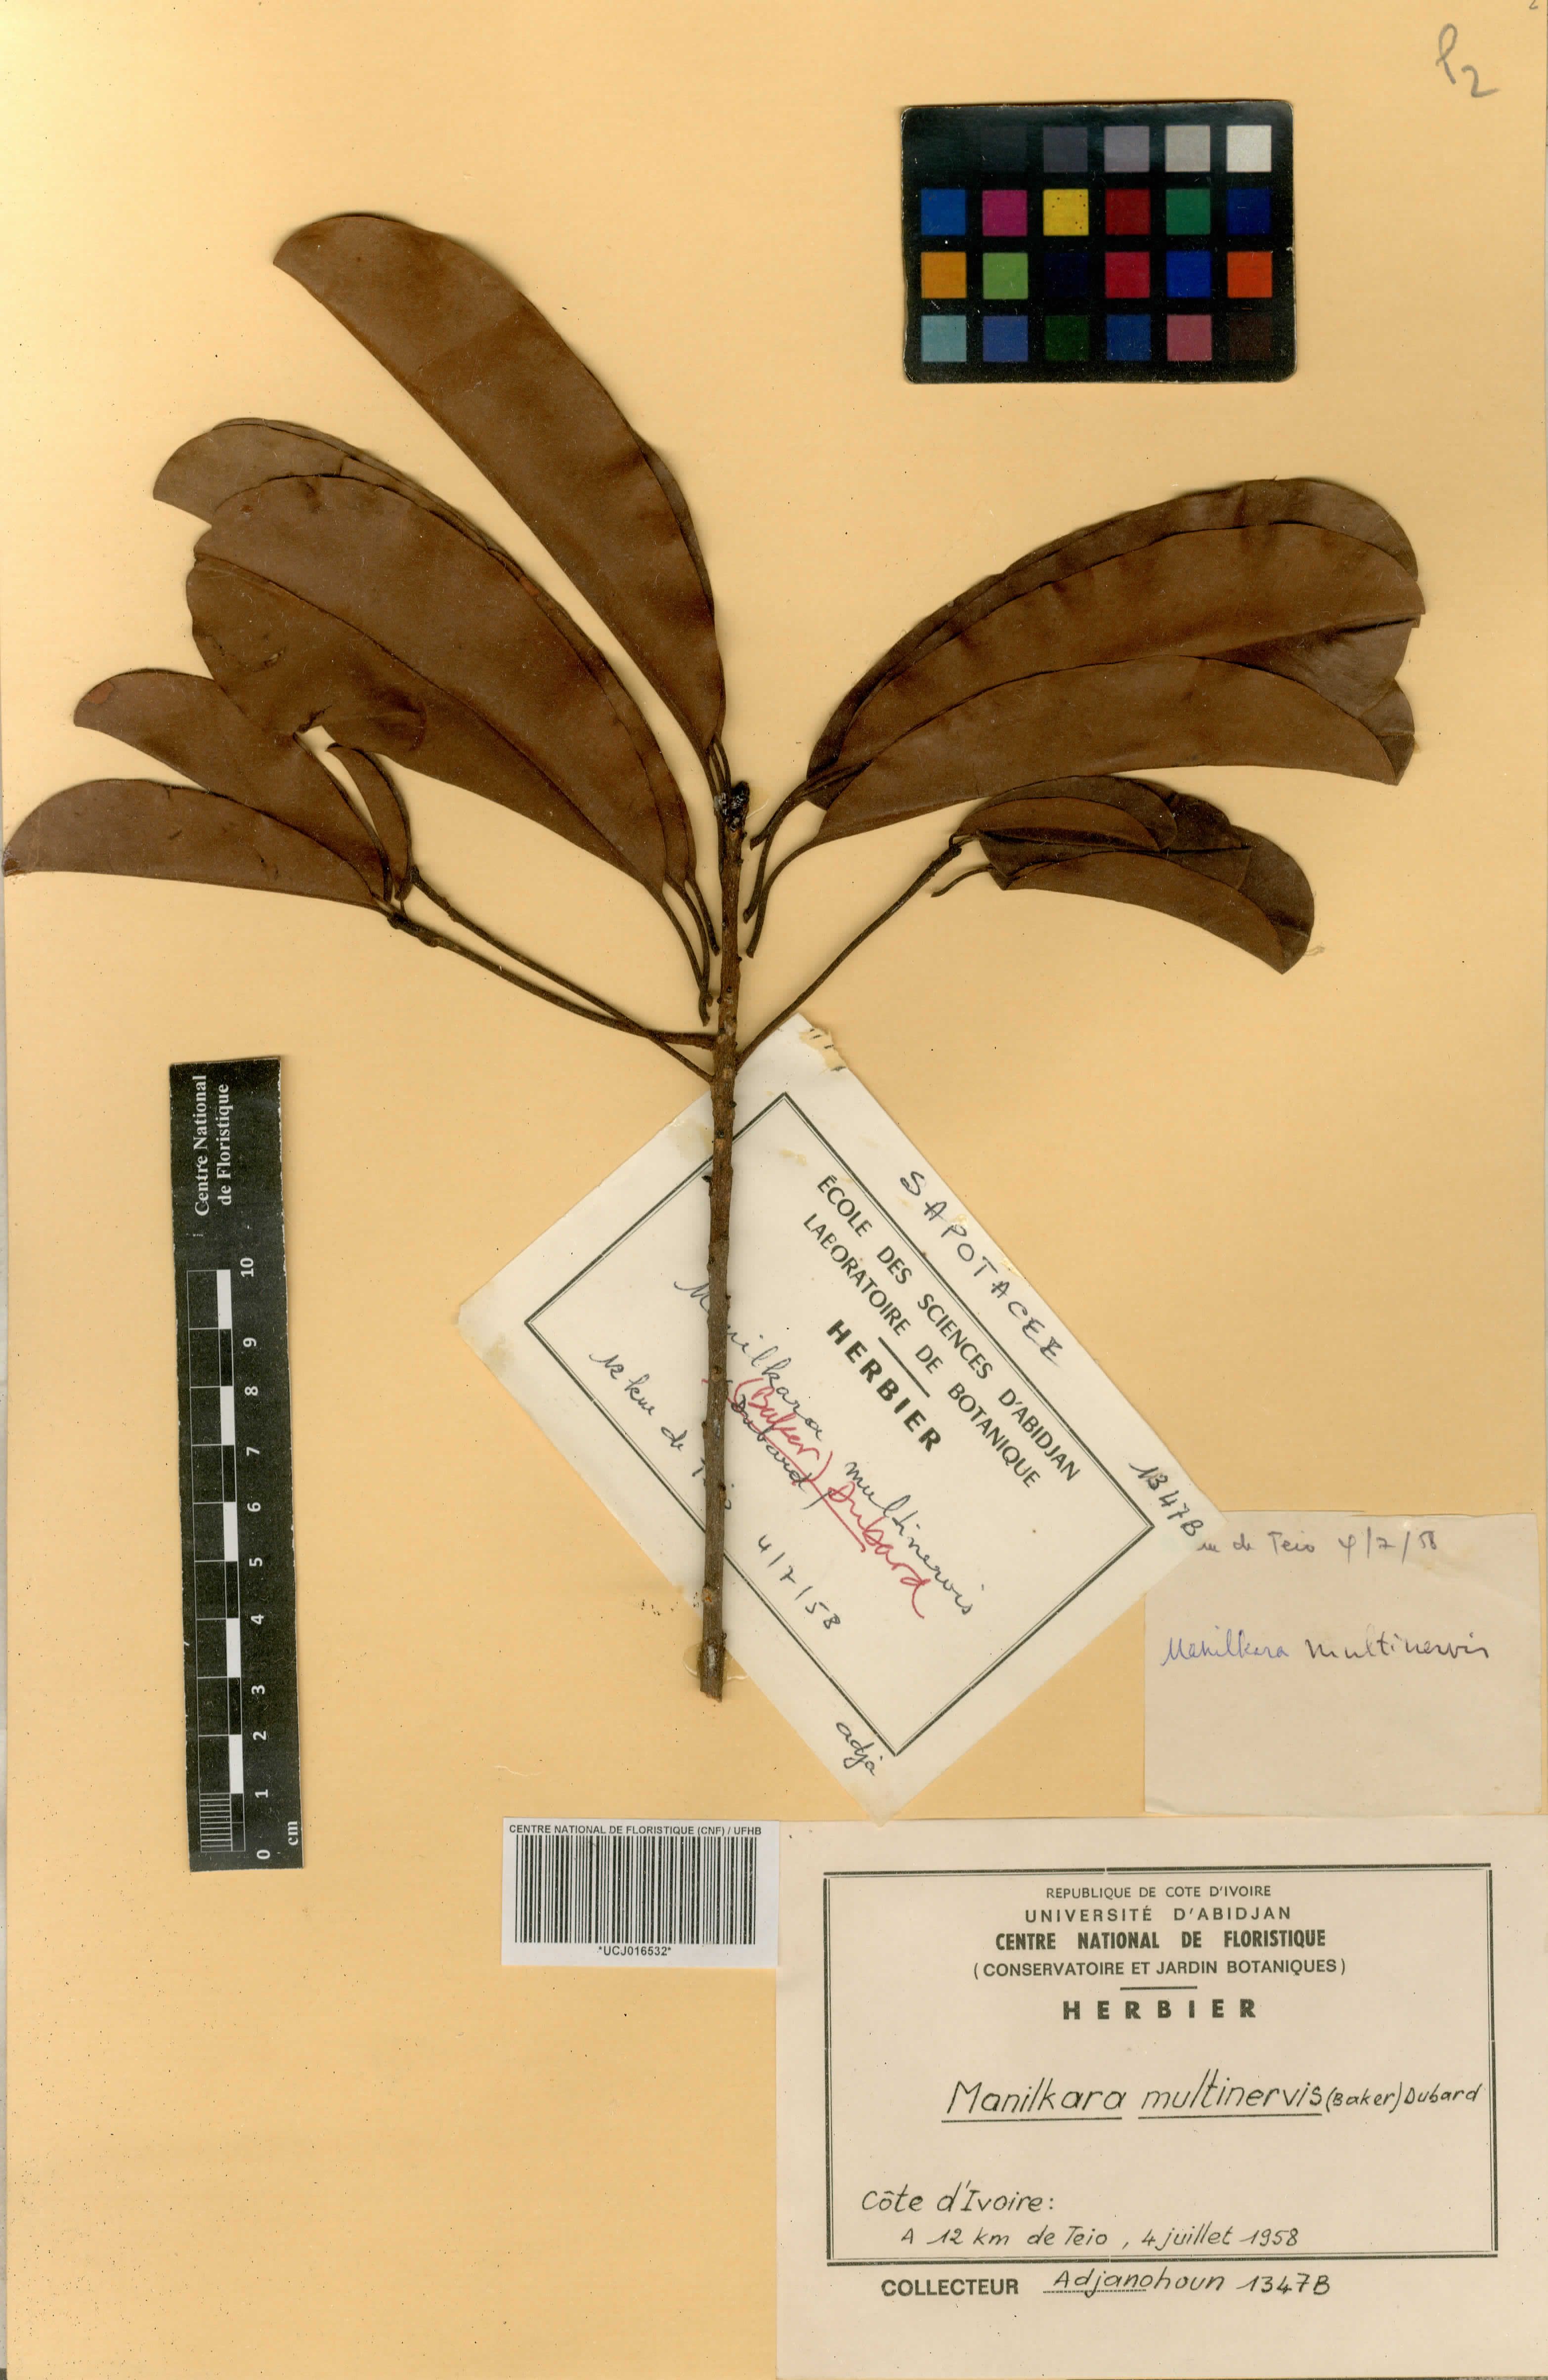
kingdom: Plantae
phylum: Tracheophyta
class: Magnoliopsida
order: Ericales
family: Sapotaceae
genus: Manilkara
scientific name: Manilkara obovata
